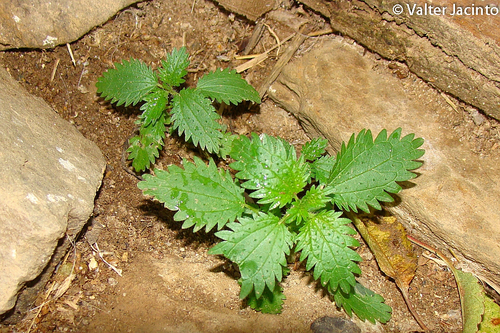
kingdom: Plantae
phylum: Tracheophyta
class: Magnoliopsida
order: Rosales
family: Urticaceae
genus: Urtica
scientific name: Urtica urens
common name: Dwarf nettle
